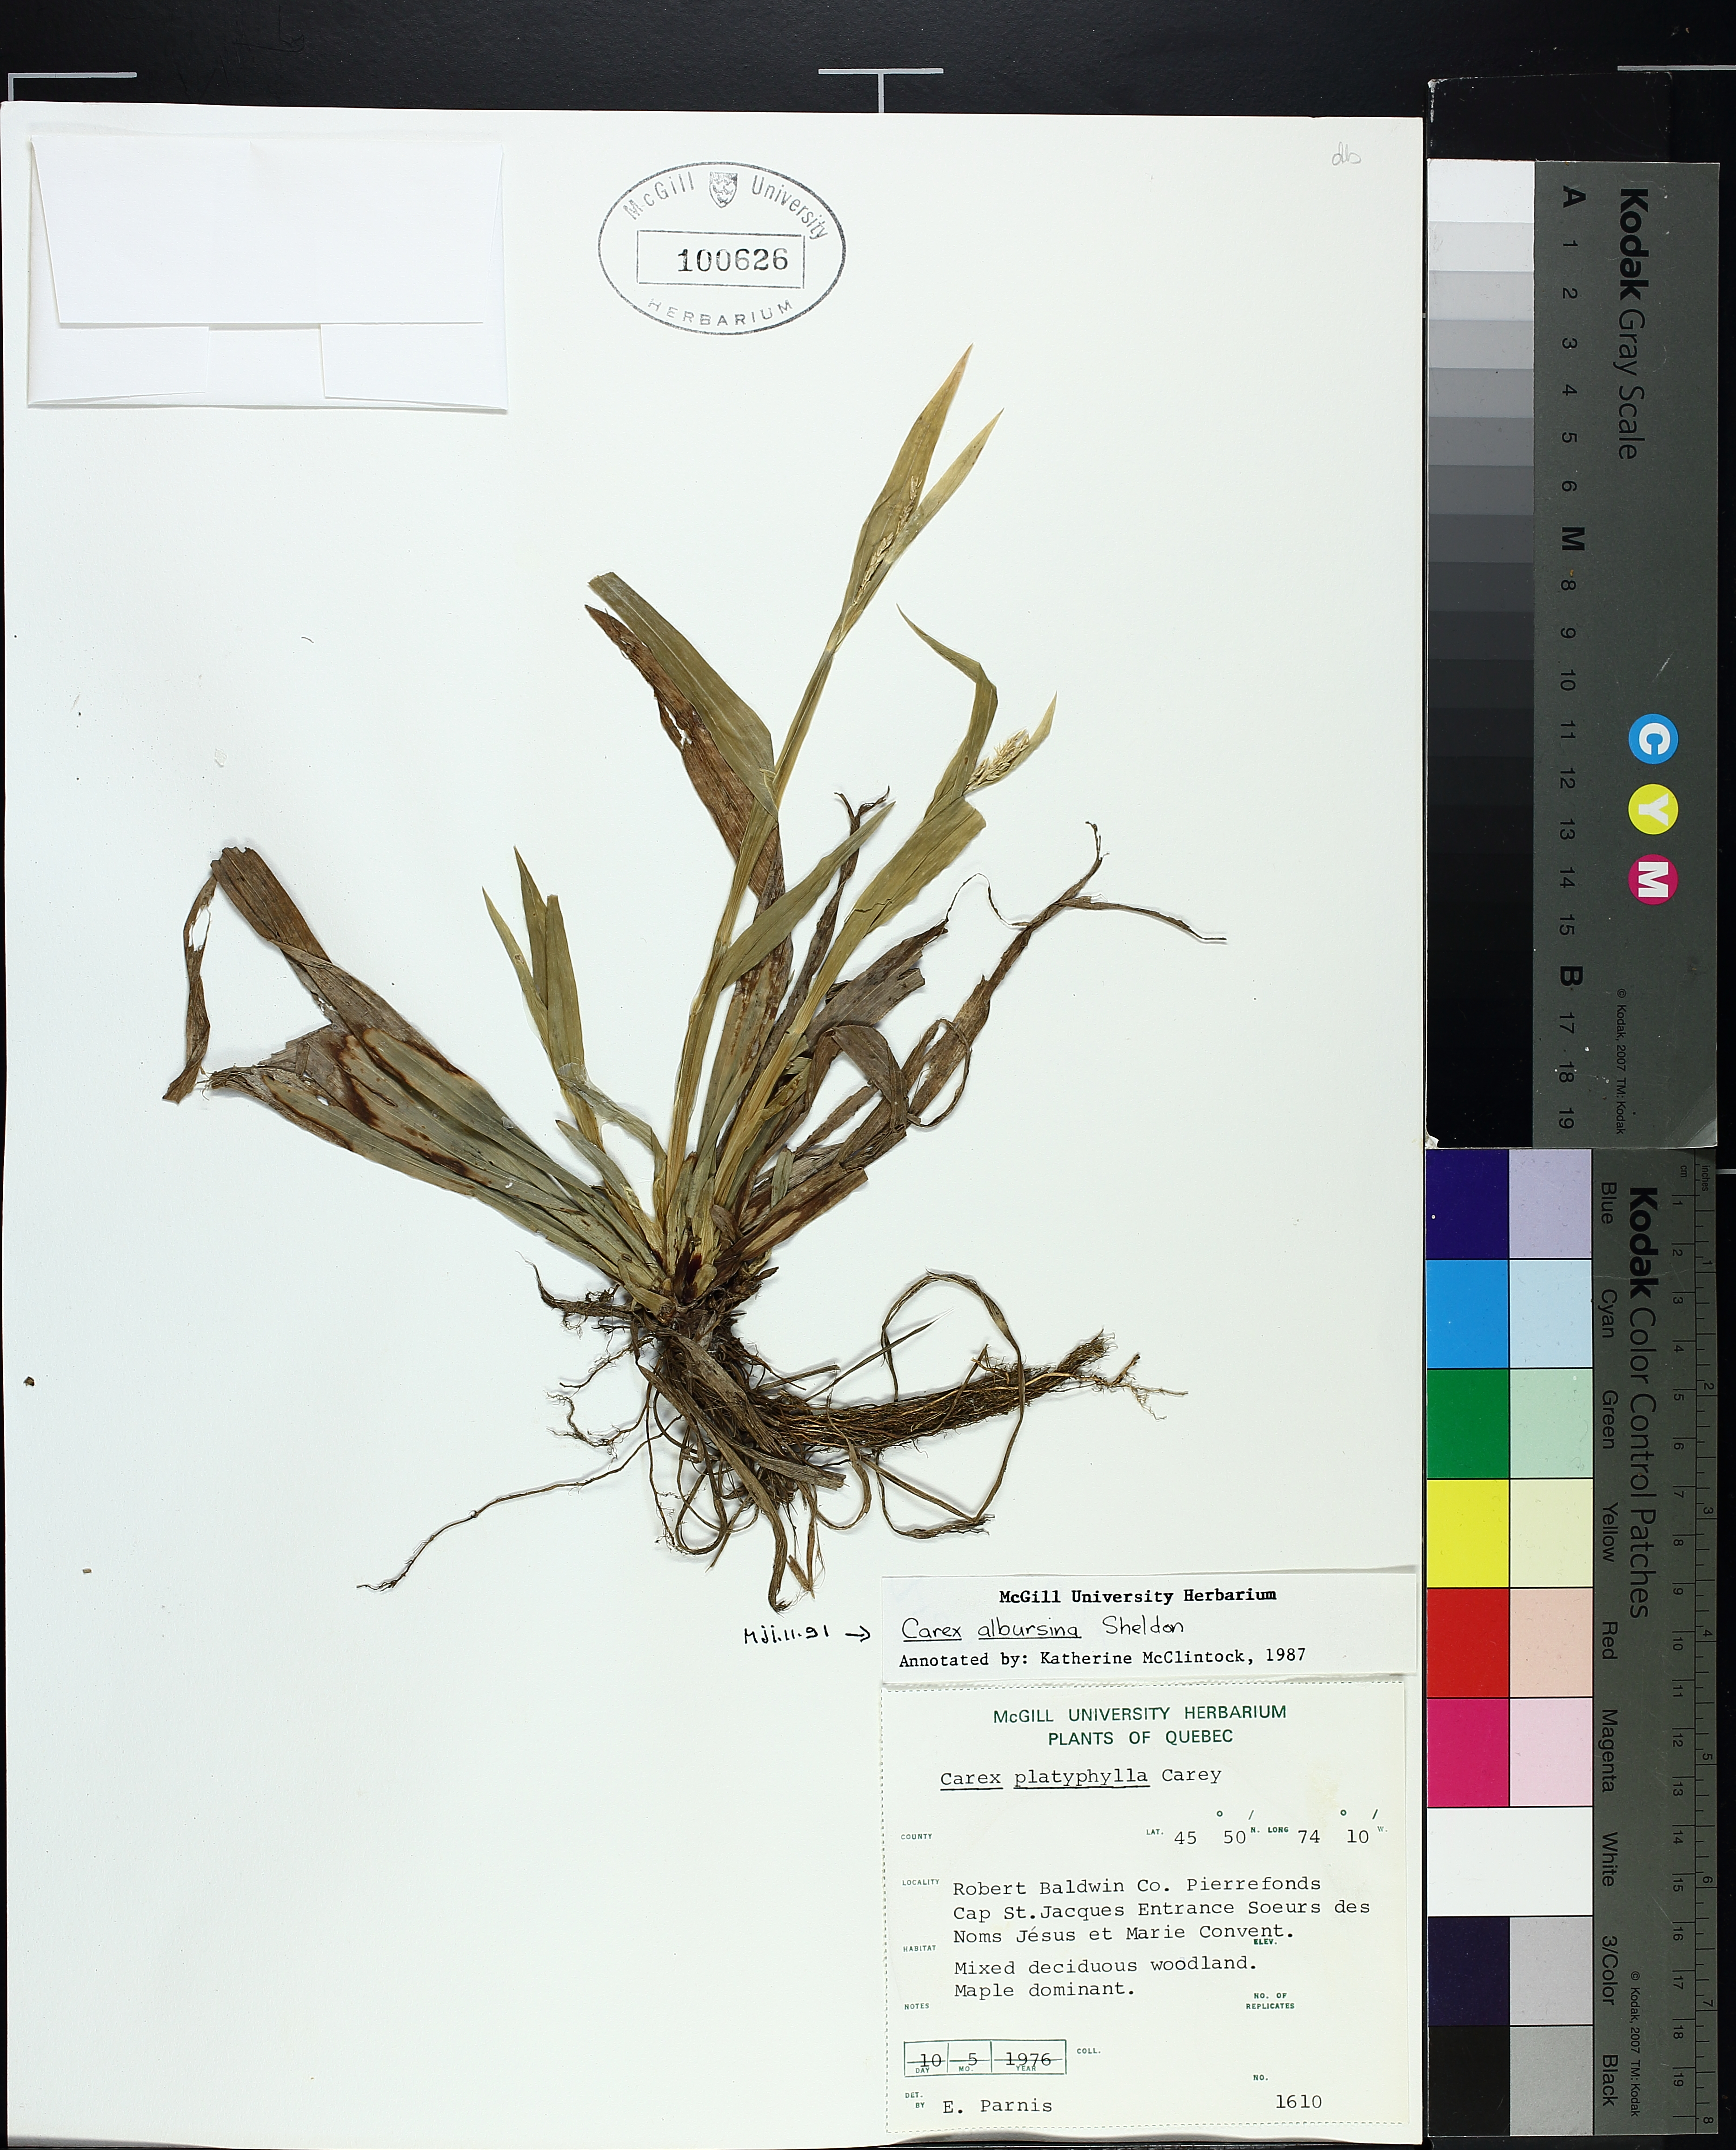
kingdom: Plantae
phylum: Tracheophyta
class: Liliopsida
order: Poales
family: Cyperaceae
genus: Carex
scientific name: Carex albursina
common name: Blunt-scale wood sedge
